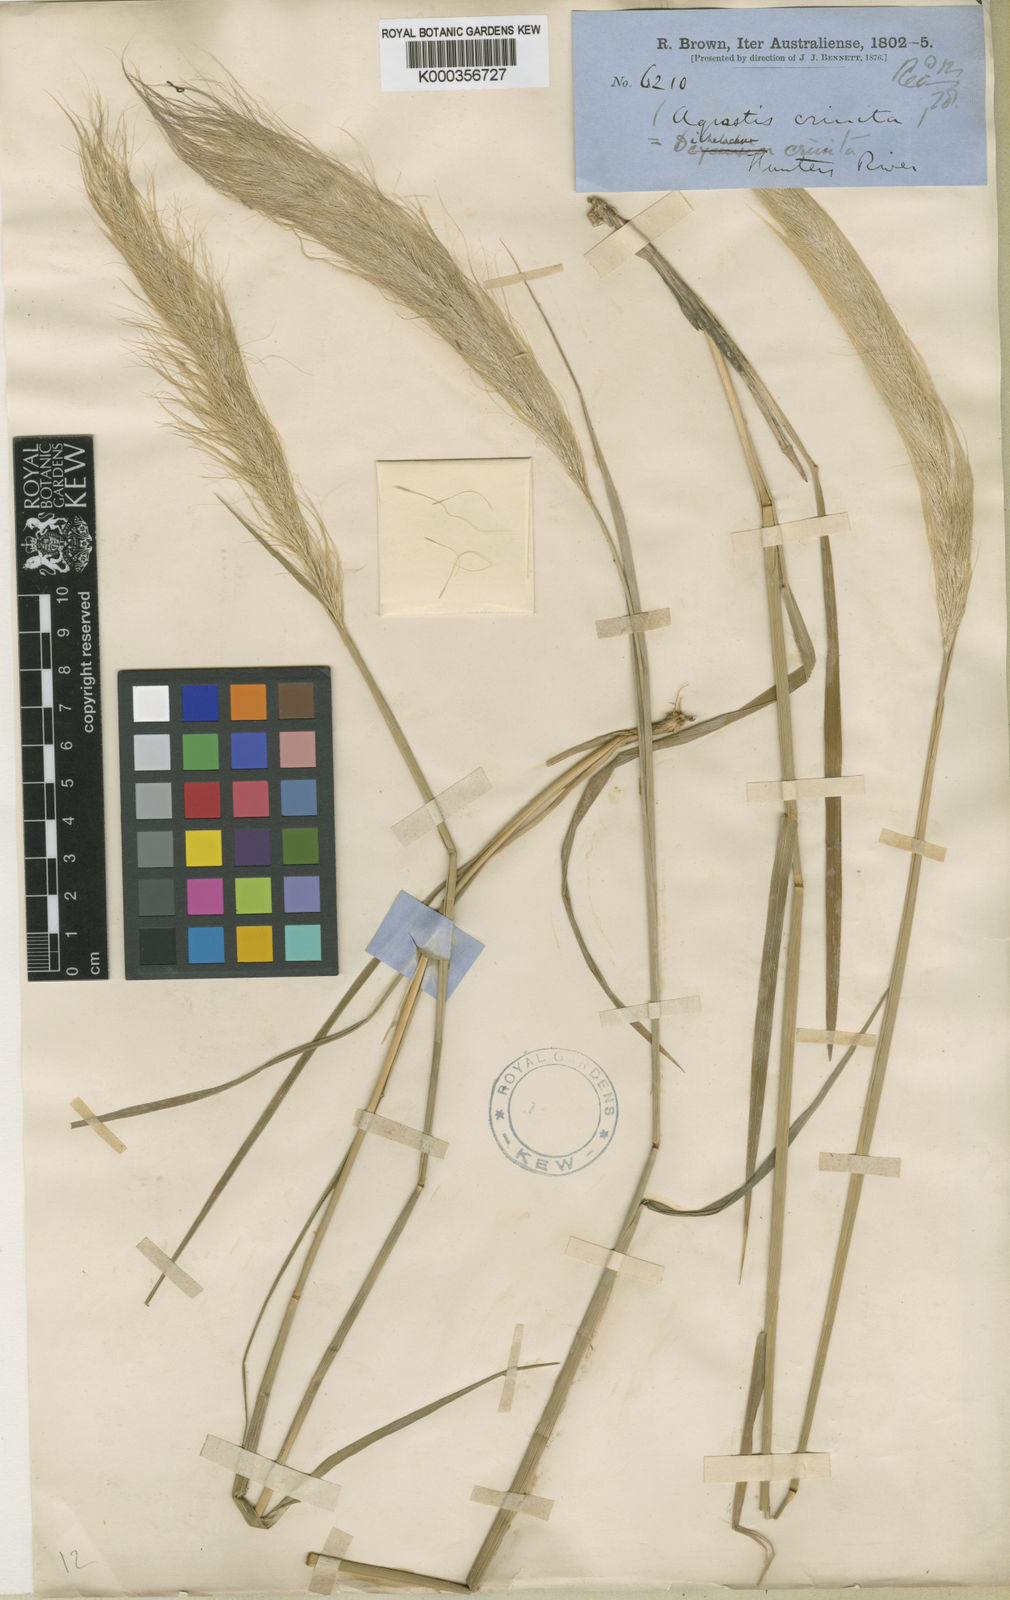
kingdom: Plantae
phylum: Tracheophyta
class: Liliopsida
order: Poales
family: Poaceae
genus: Dichelachne
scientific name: Dichelachne crinita
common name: Clovenfoot plumegrass
